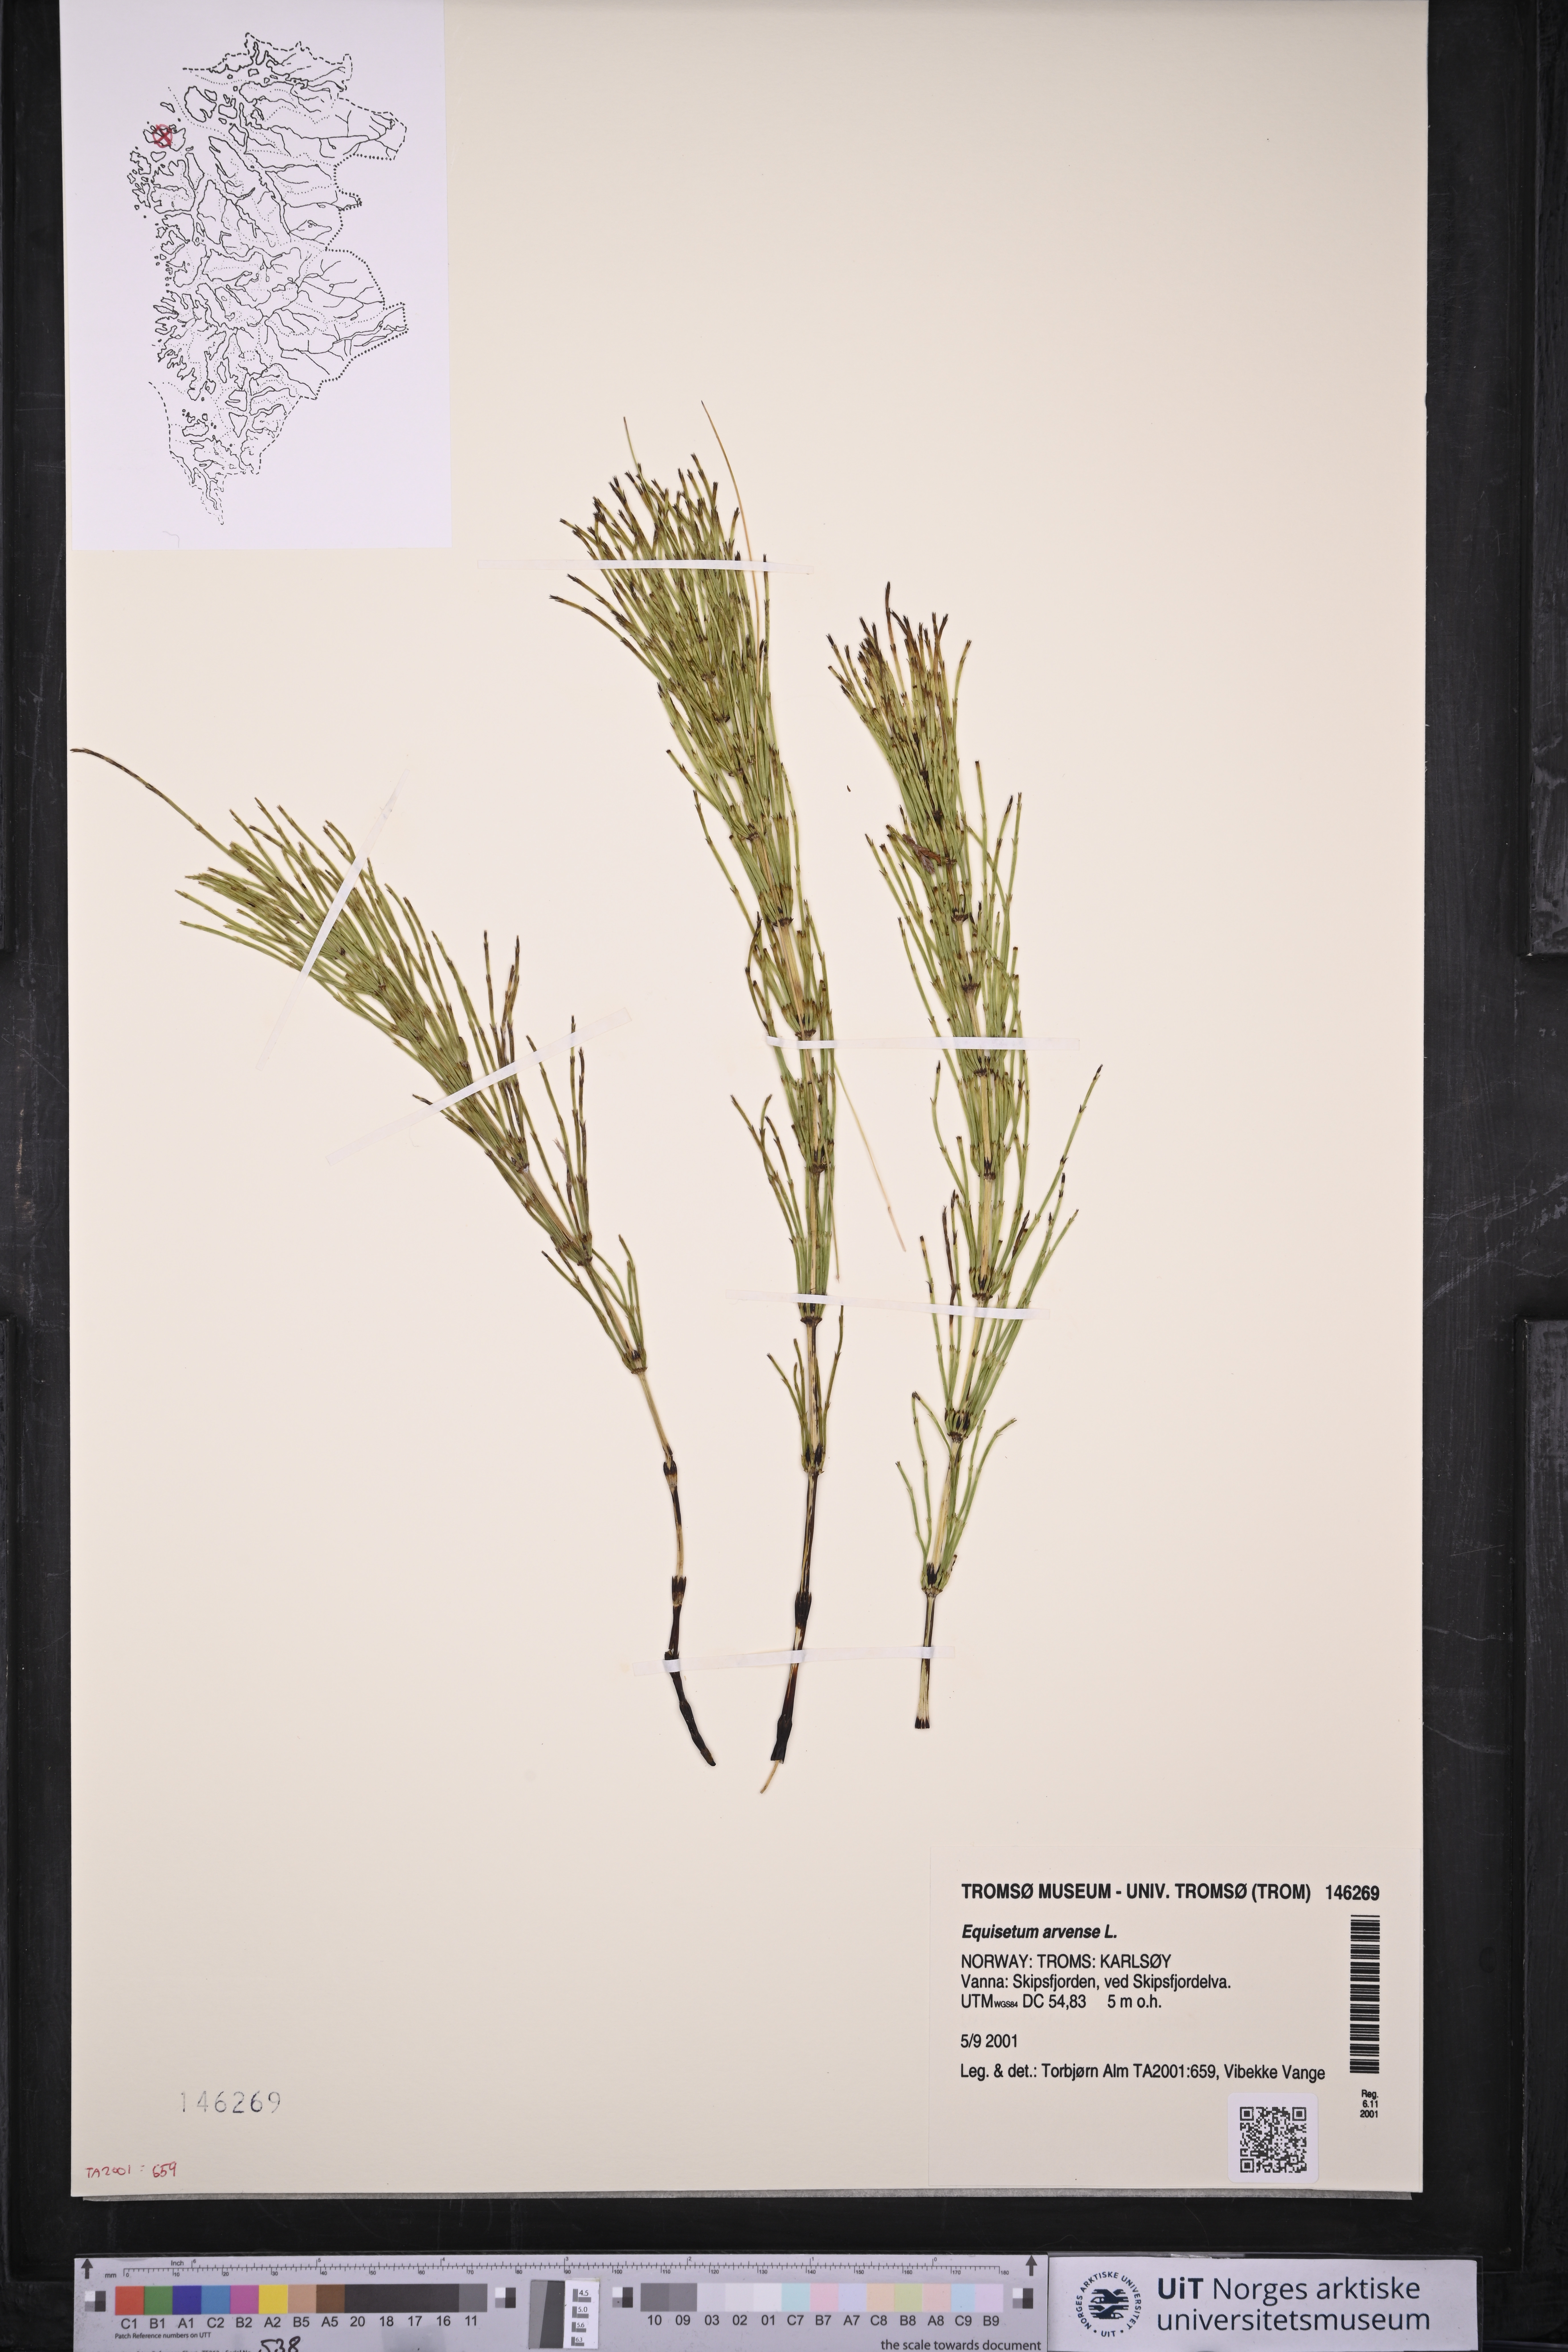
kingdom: Plantae
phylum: Tracheophyta
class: Polypodiopsida
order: Equisetales
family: Equisetaceae
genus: Equisetum
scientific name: Equisetum arvense
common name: Field horsetail
